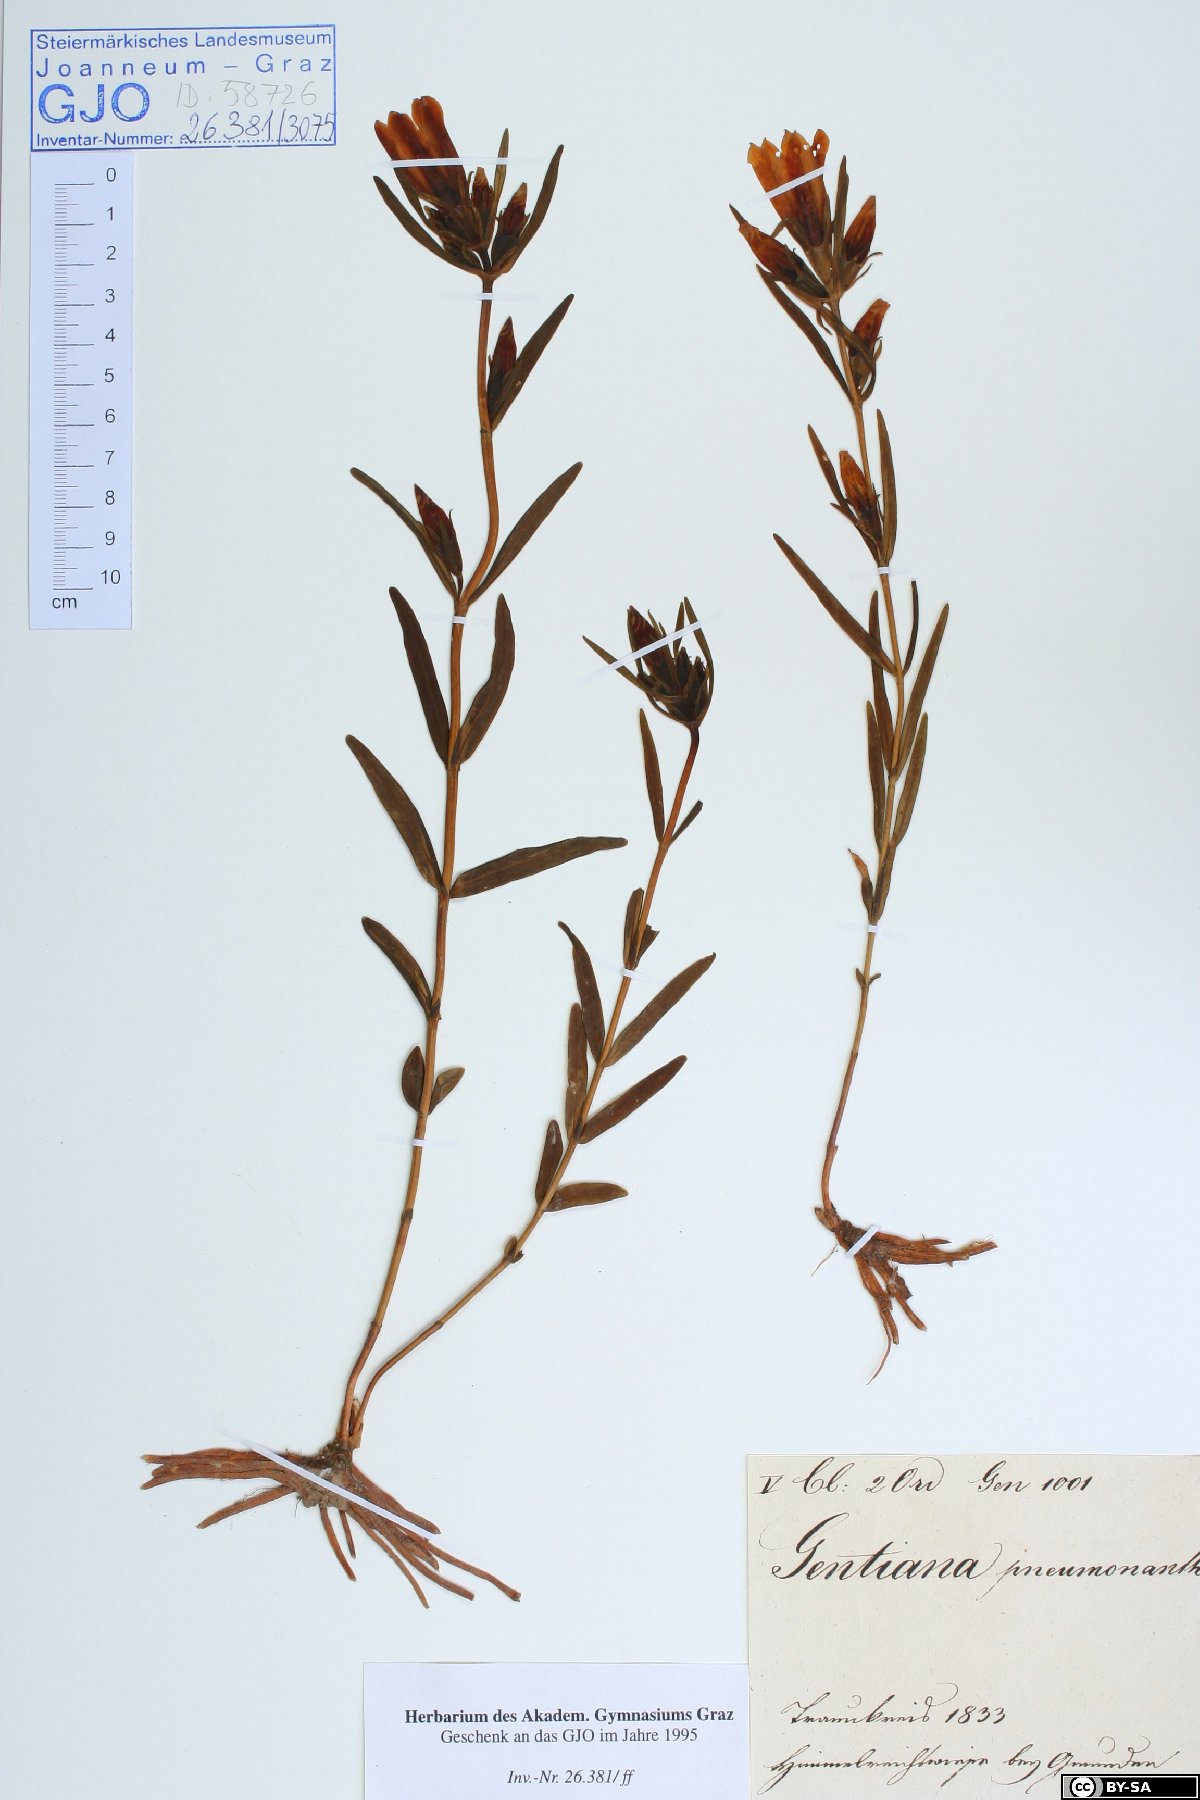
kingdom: Plantae
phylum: Tracheophyta
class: Magnoliopsida
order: Gentianales
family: Gentianaceae
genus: Gentiana
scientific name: Gentiana pneumonanthe
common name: Marsh gentian
